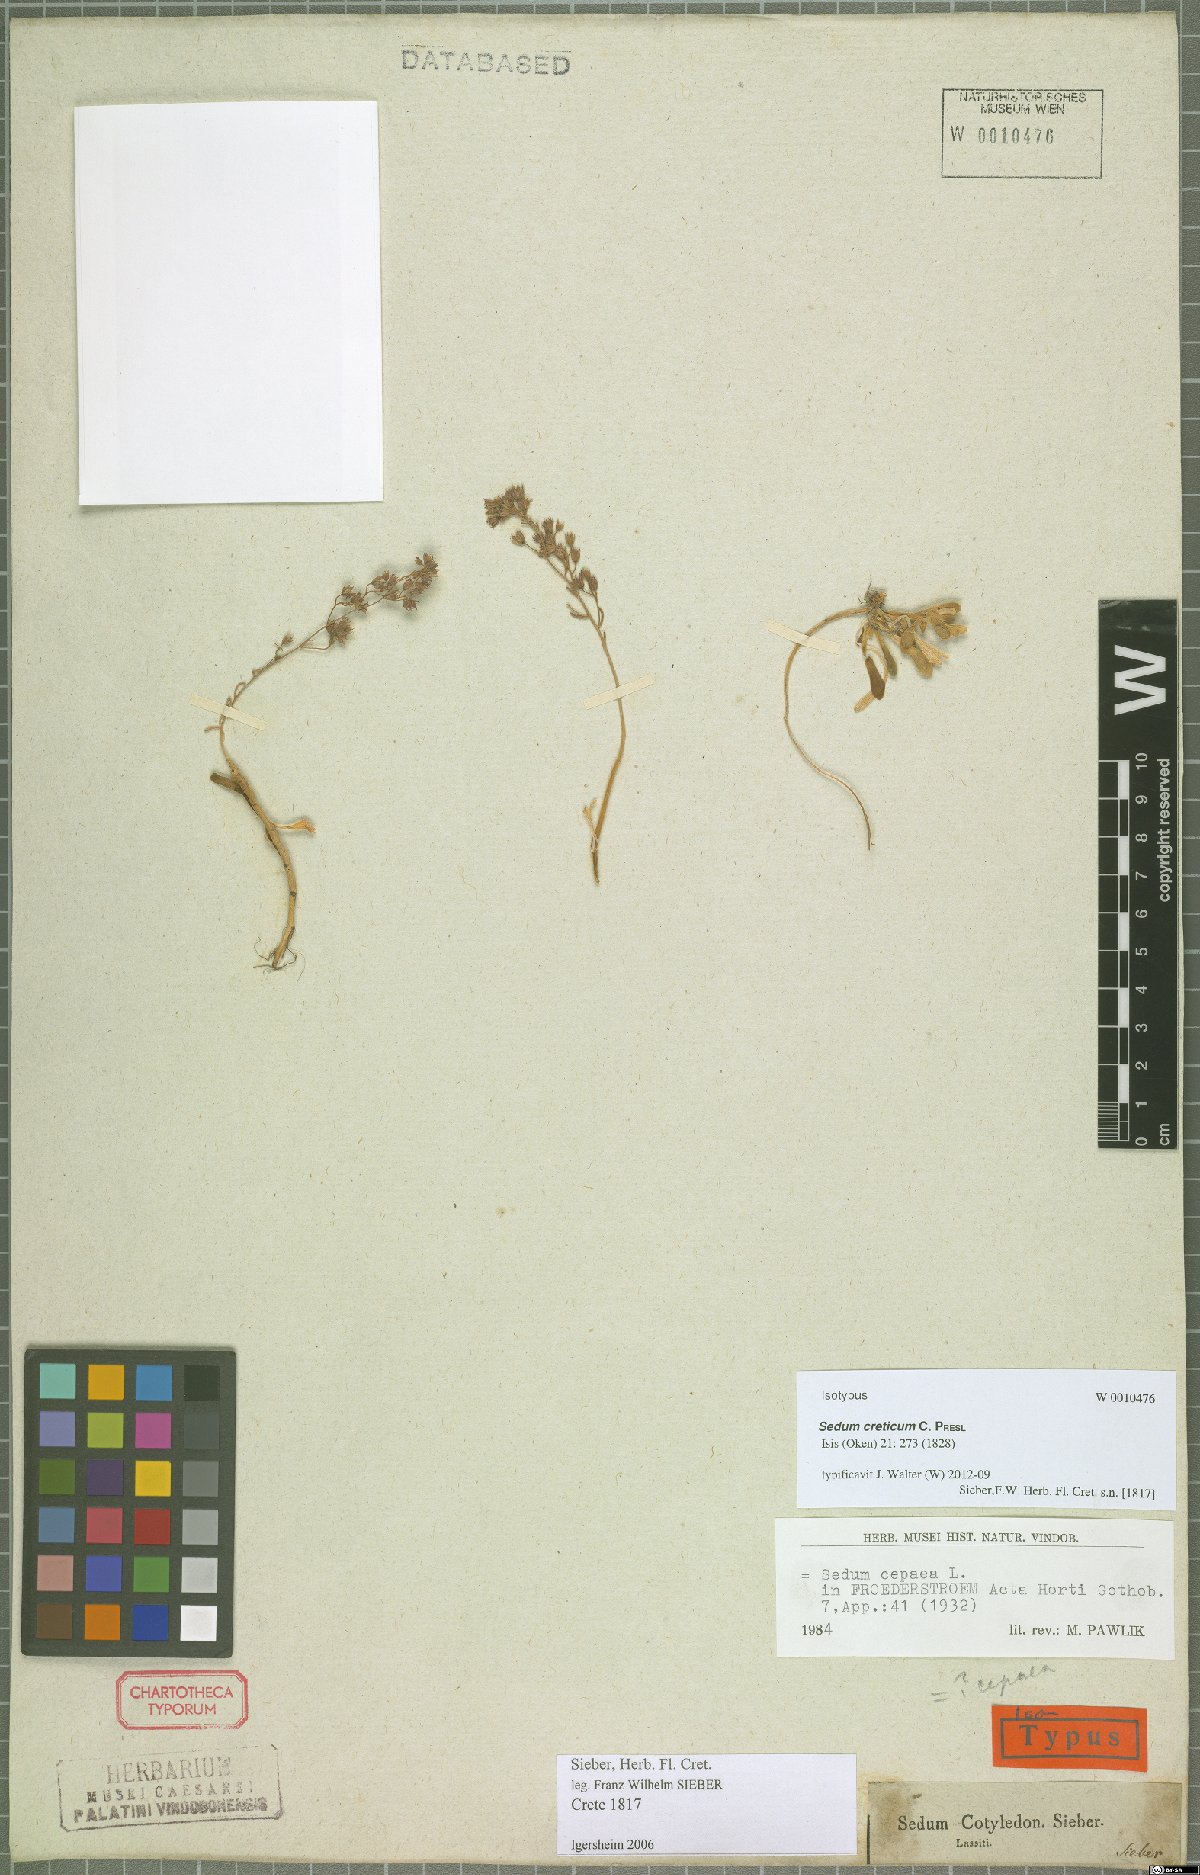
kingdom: Plantae
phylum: Tracheophyta
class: Magnoliopsida
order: Saxifragales
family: Crassulaceae
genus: Sedum
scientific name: Sedum creticum
